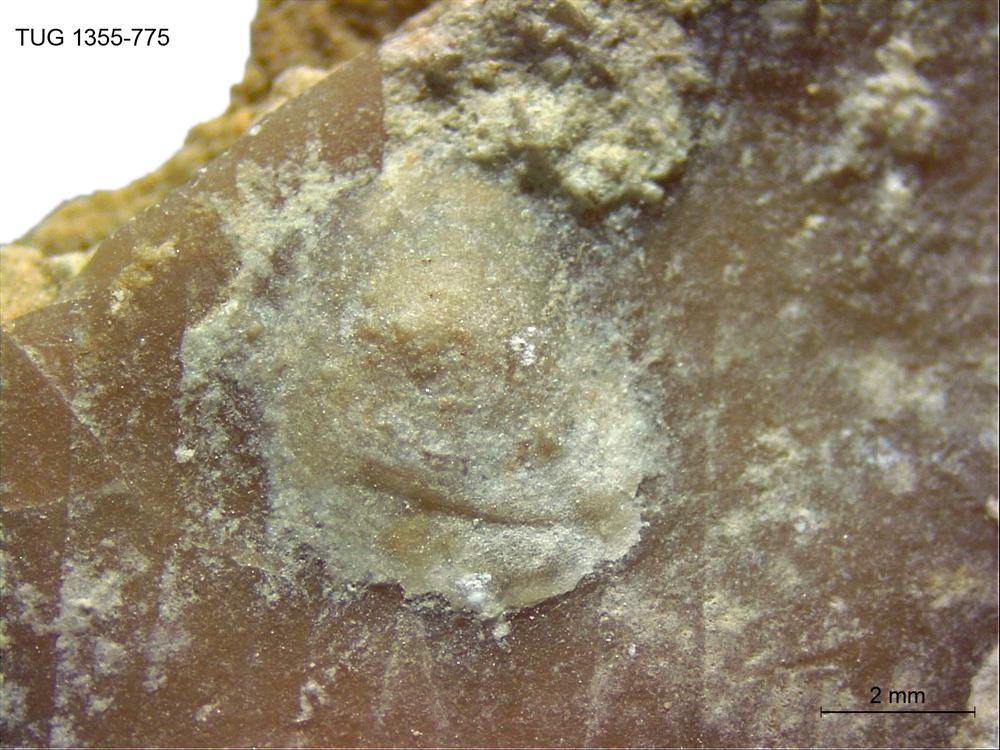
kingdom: Animalia
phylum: Brachiopoda
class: Craniata
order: Craniida
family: Craniidae
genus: Philhedra
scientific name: Philhedra
